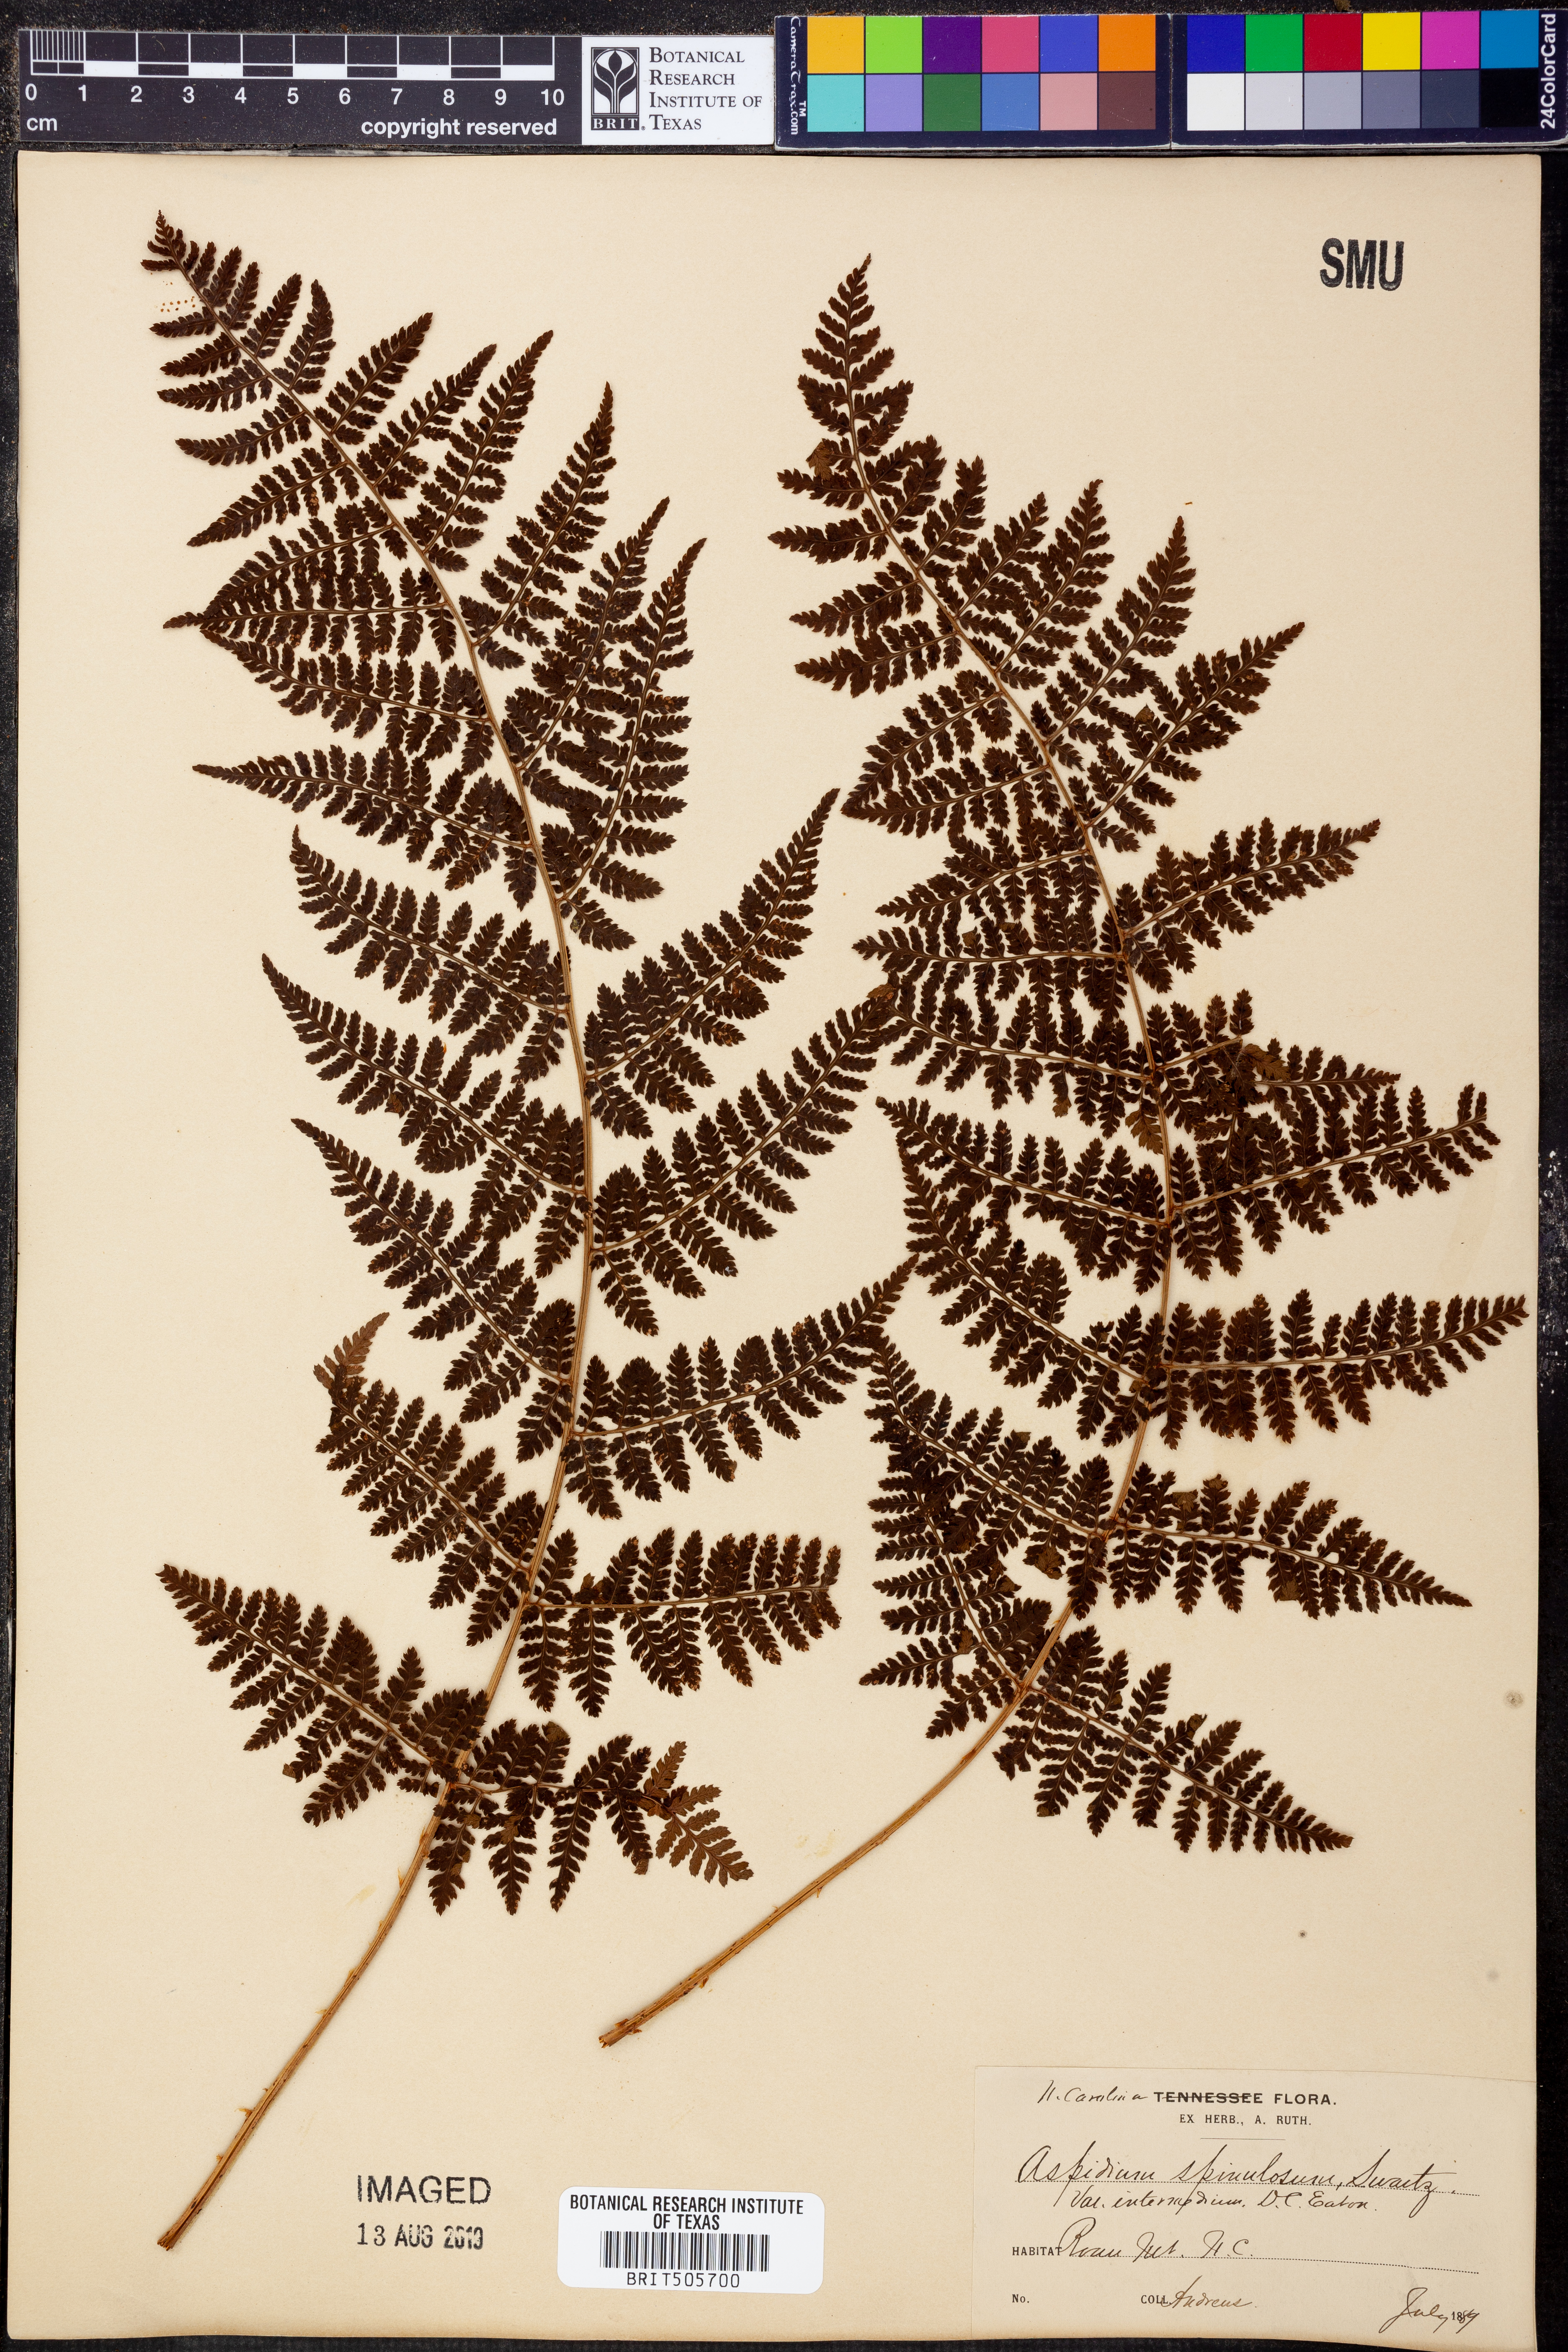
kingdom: Plantae
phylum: Tracheophyta
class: Polypodiopsida
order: Polypodiales
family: Dryopteridaceae
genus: Dryopteris
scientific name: Dryopteris intermedia
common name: Evergreen wood fern
